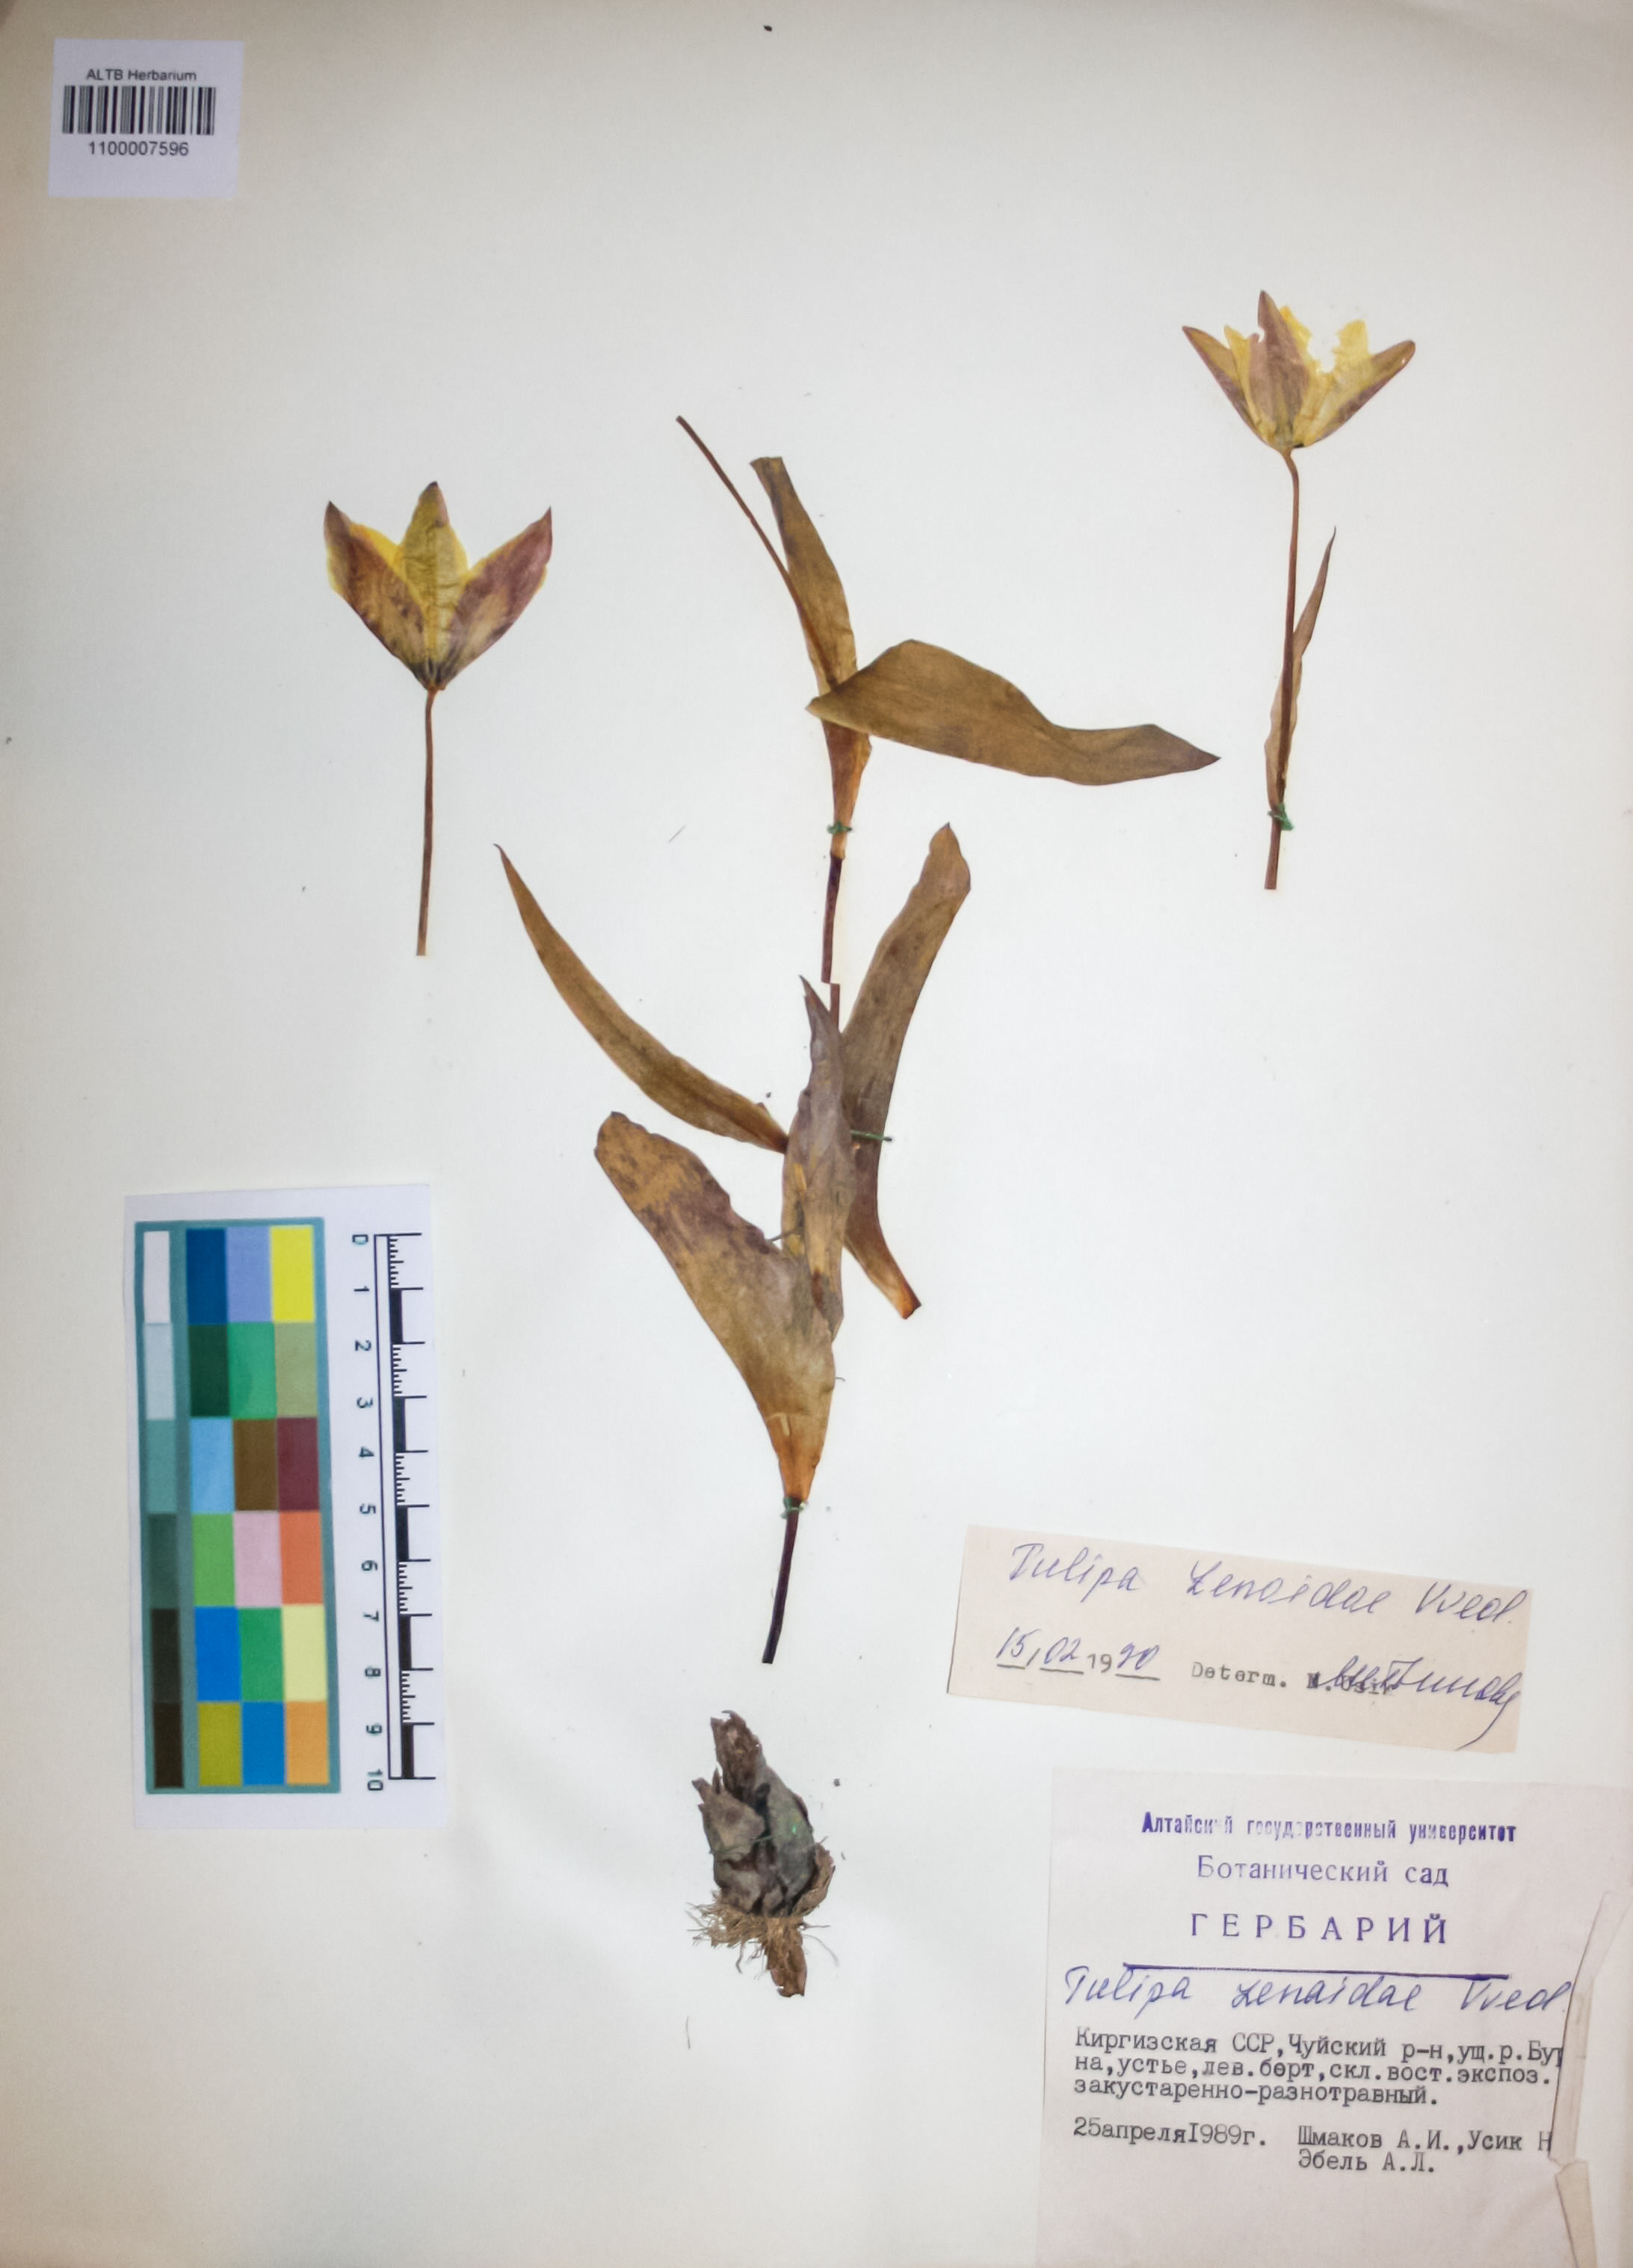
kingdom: Plantae
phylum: Tracheophyta
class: Liliopsida
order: Liliales
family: Liliaceae
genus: Tulipa
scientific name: Tulipa lehmanniana
